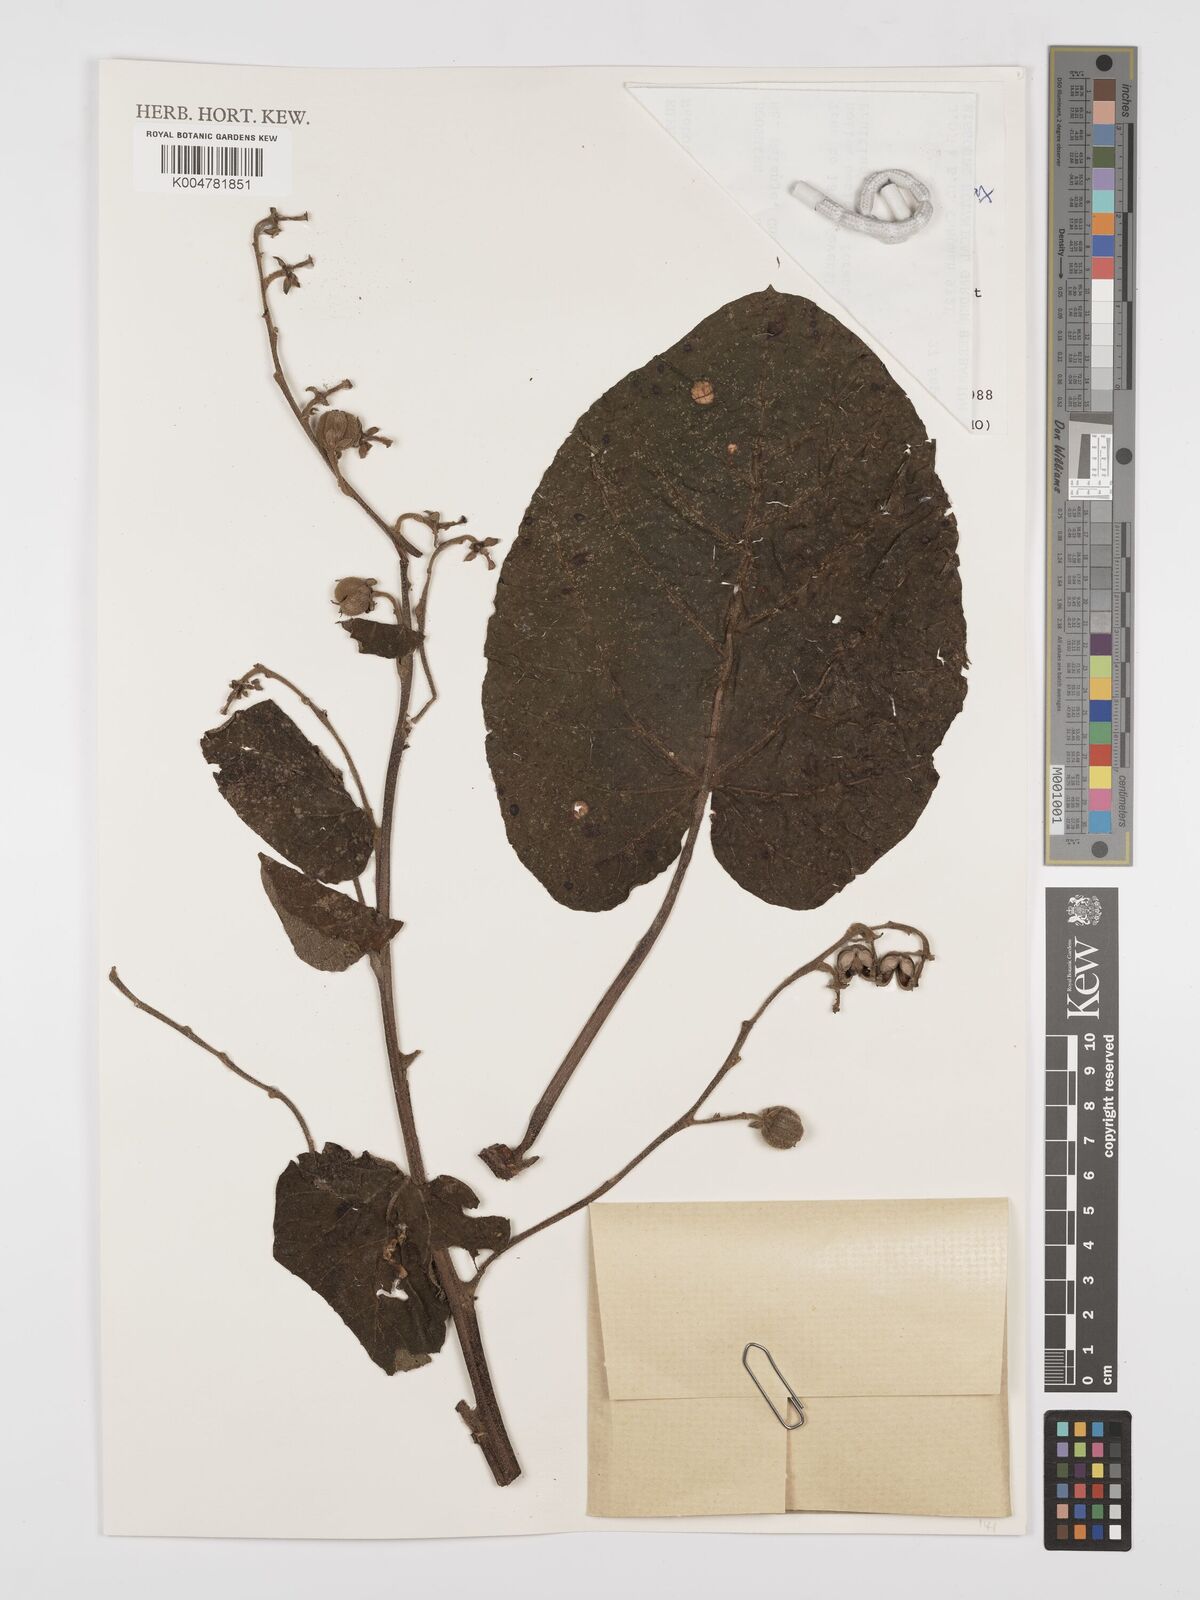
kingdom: Plantae
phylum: Tracheophyta
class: Magnoliopsida
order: Malpighiales
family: Euphorbiaceae
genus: Neoboutonia
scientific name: Neoboutonia macrocalyx
